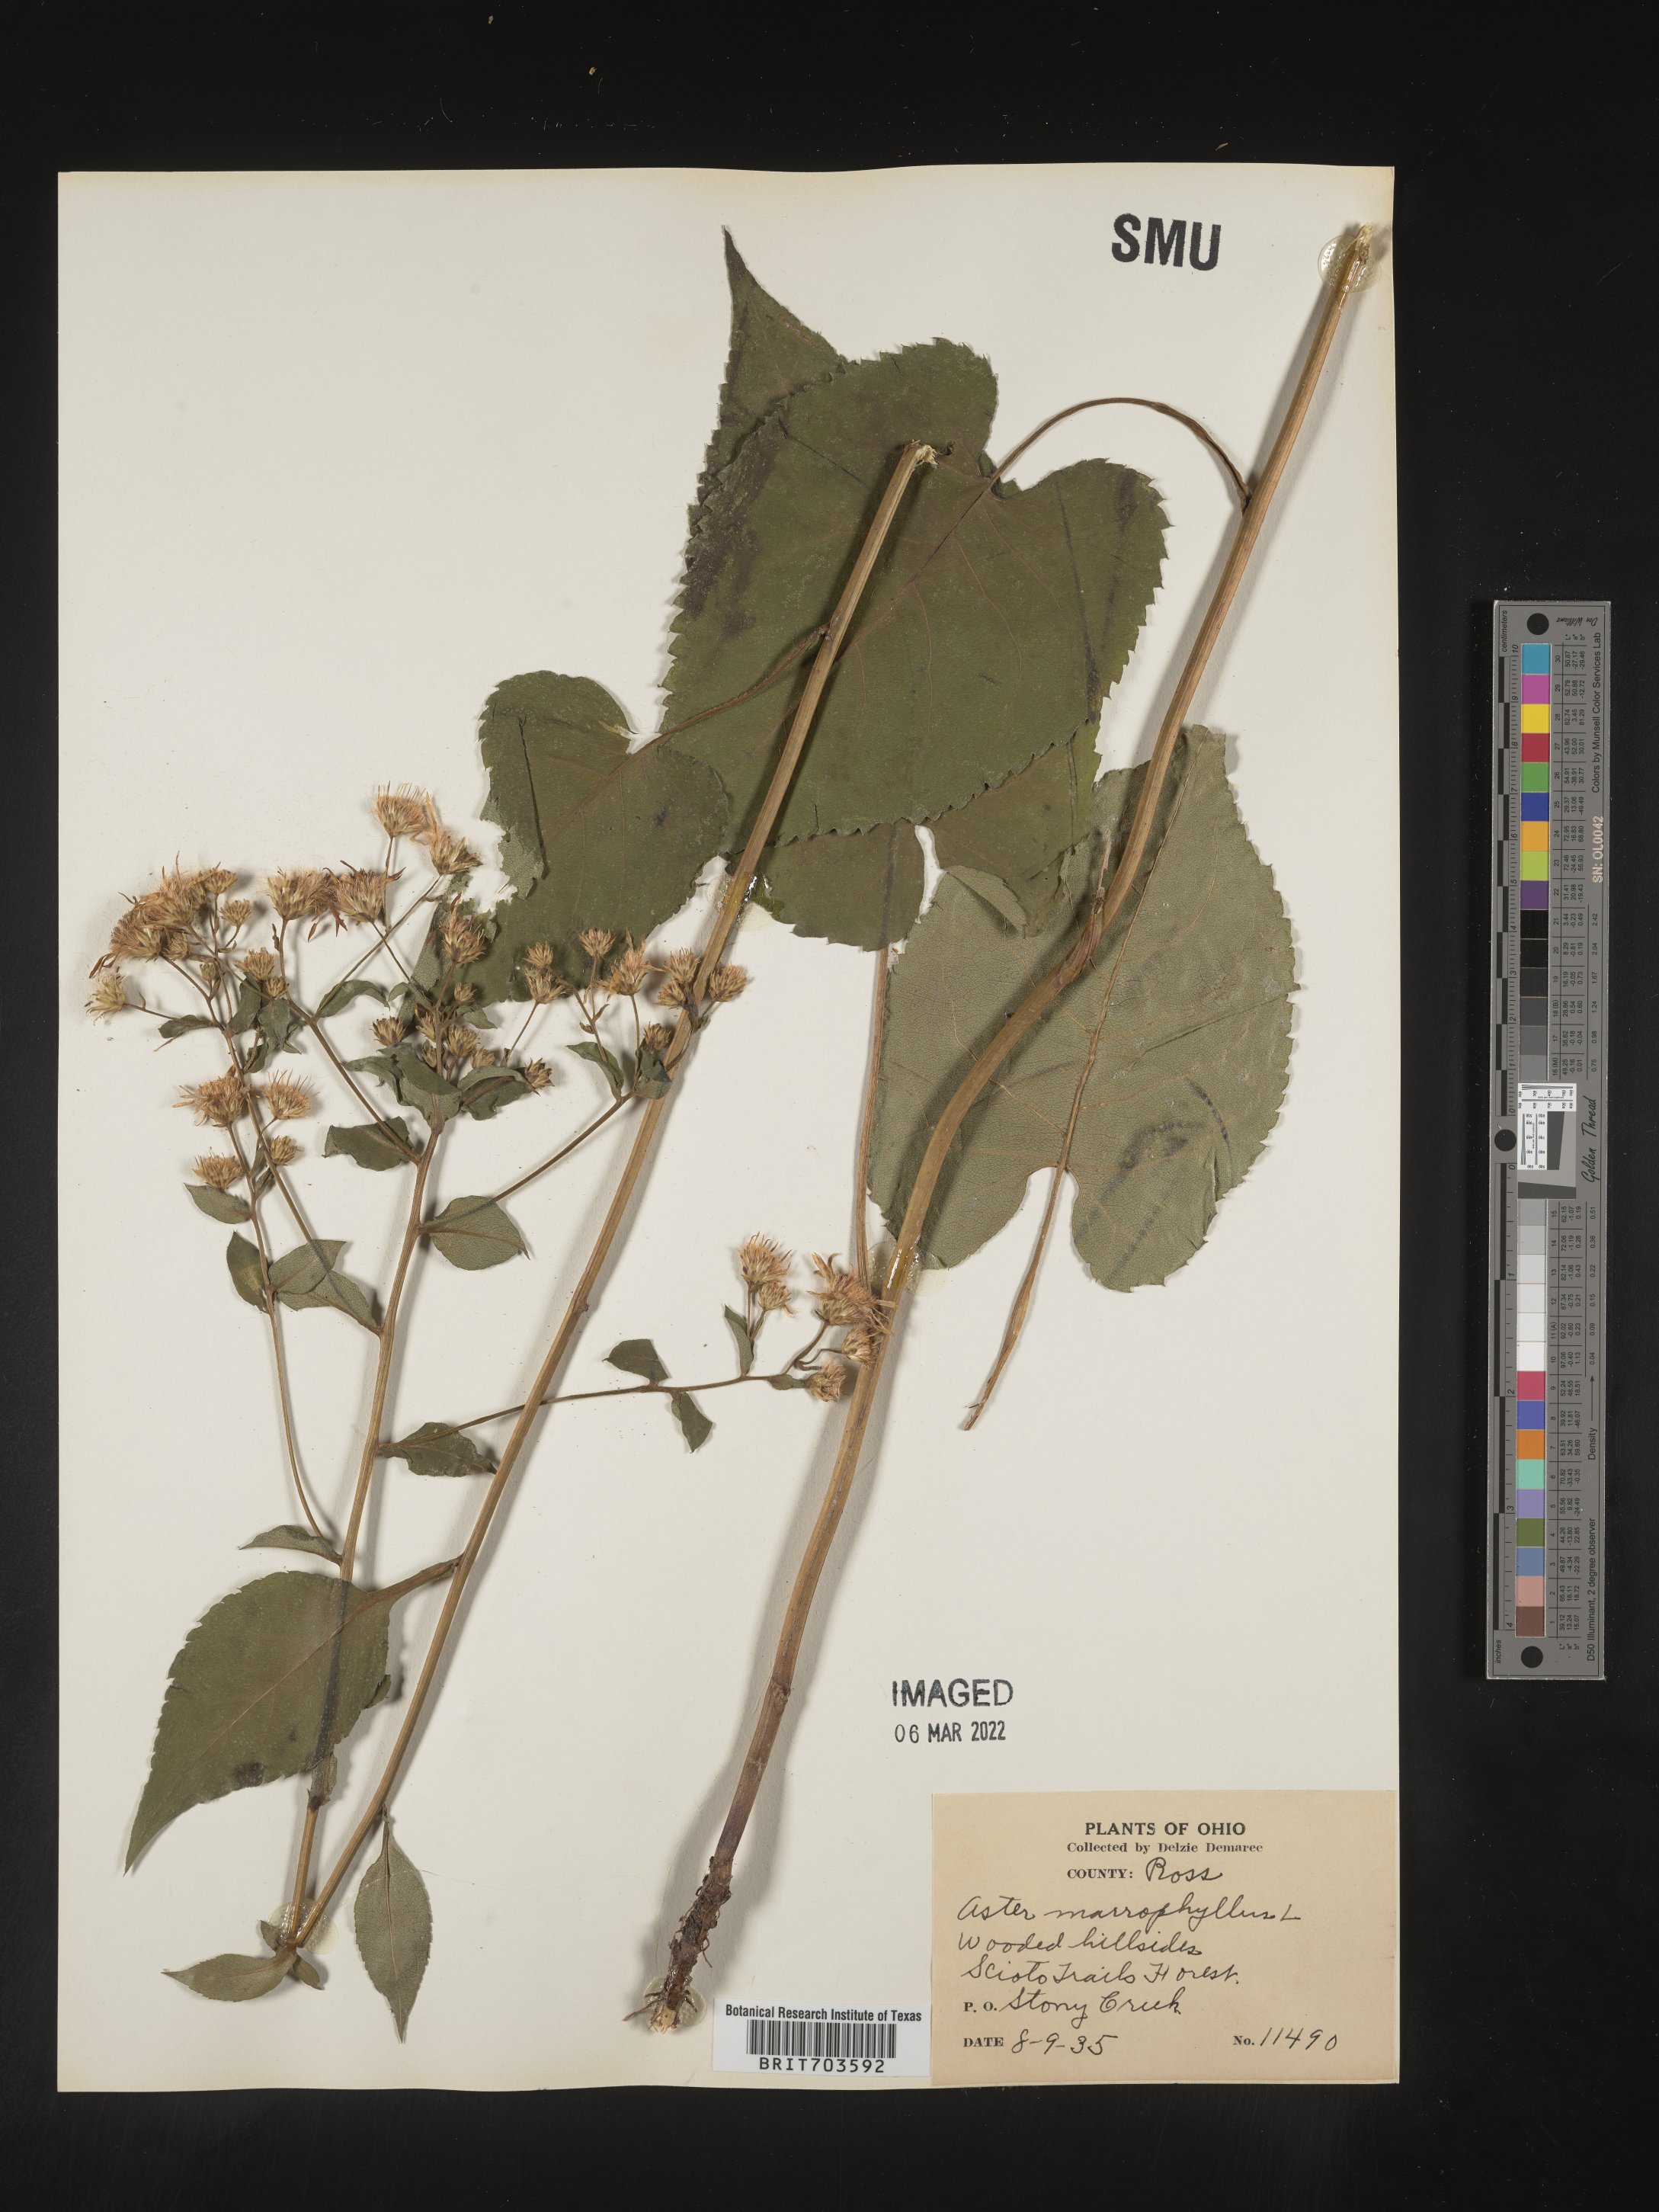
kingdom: Plantae
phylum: Tracheophyta
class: Magnoliopsida
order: Asterales
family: Asteraceae
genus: Eurybia
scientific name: Eurybia macrophylla
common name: Big-leaved aster
